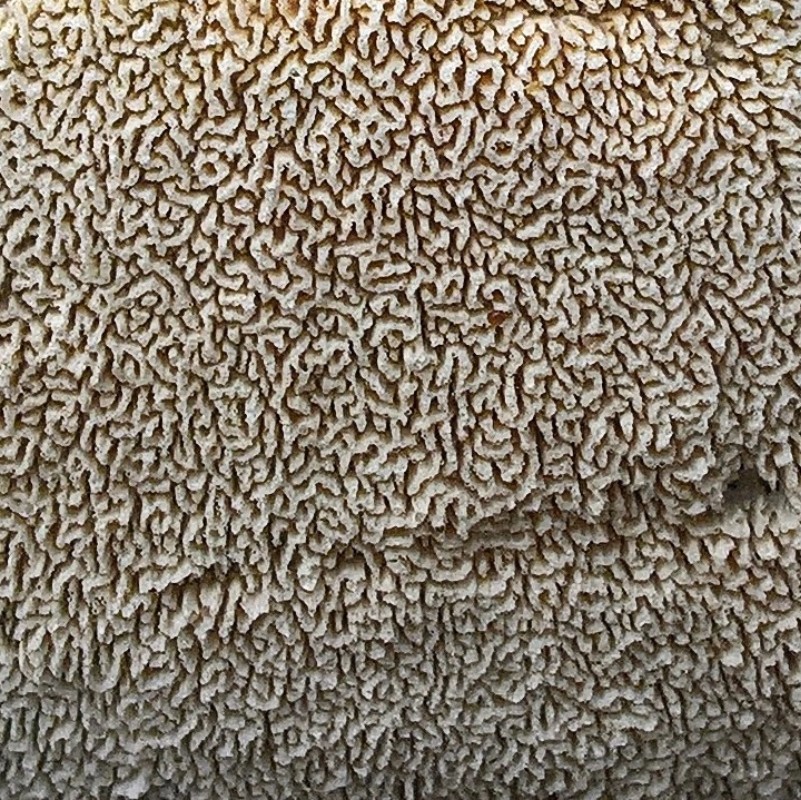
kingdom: Fungi
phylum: Basidiomycota
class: Agaricomycetes
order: Hymenochaetales
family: Schizoporaceae
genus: Xylodon
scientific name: Xylodon subtropicus
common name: labyrint-tandsvamp
